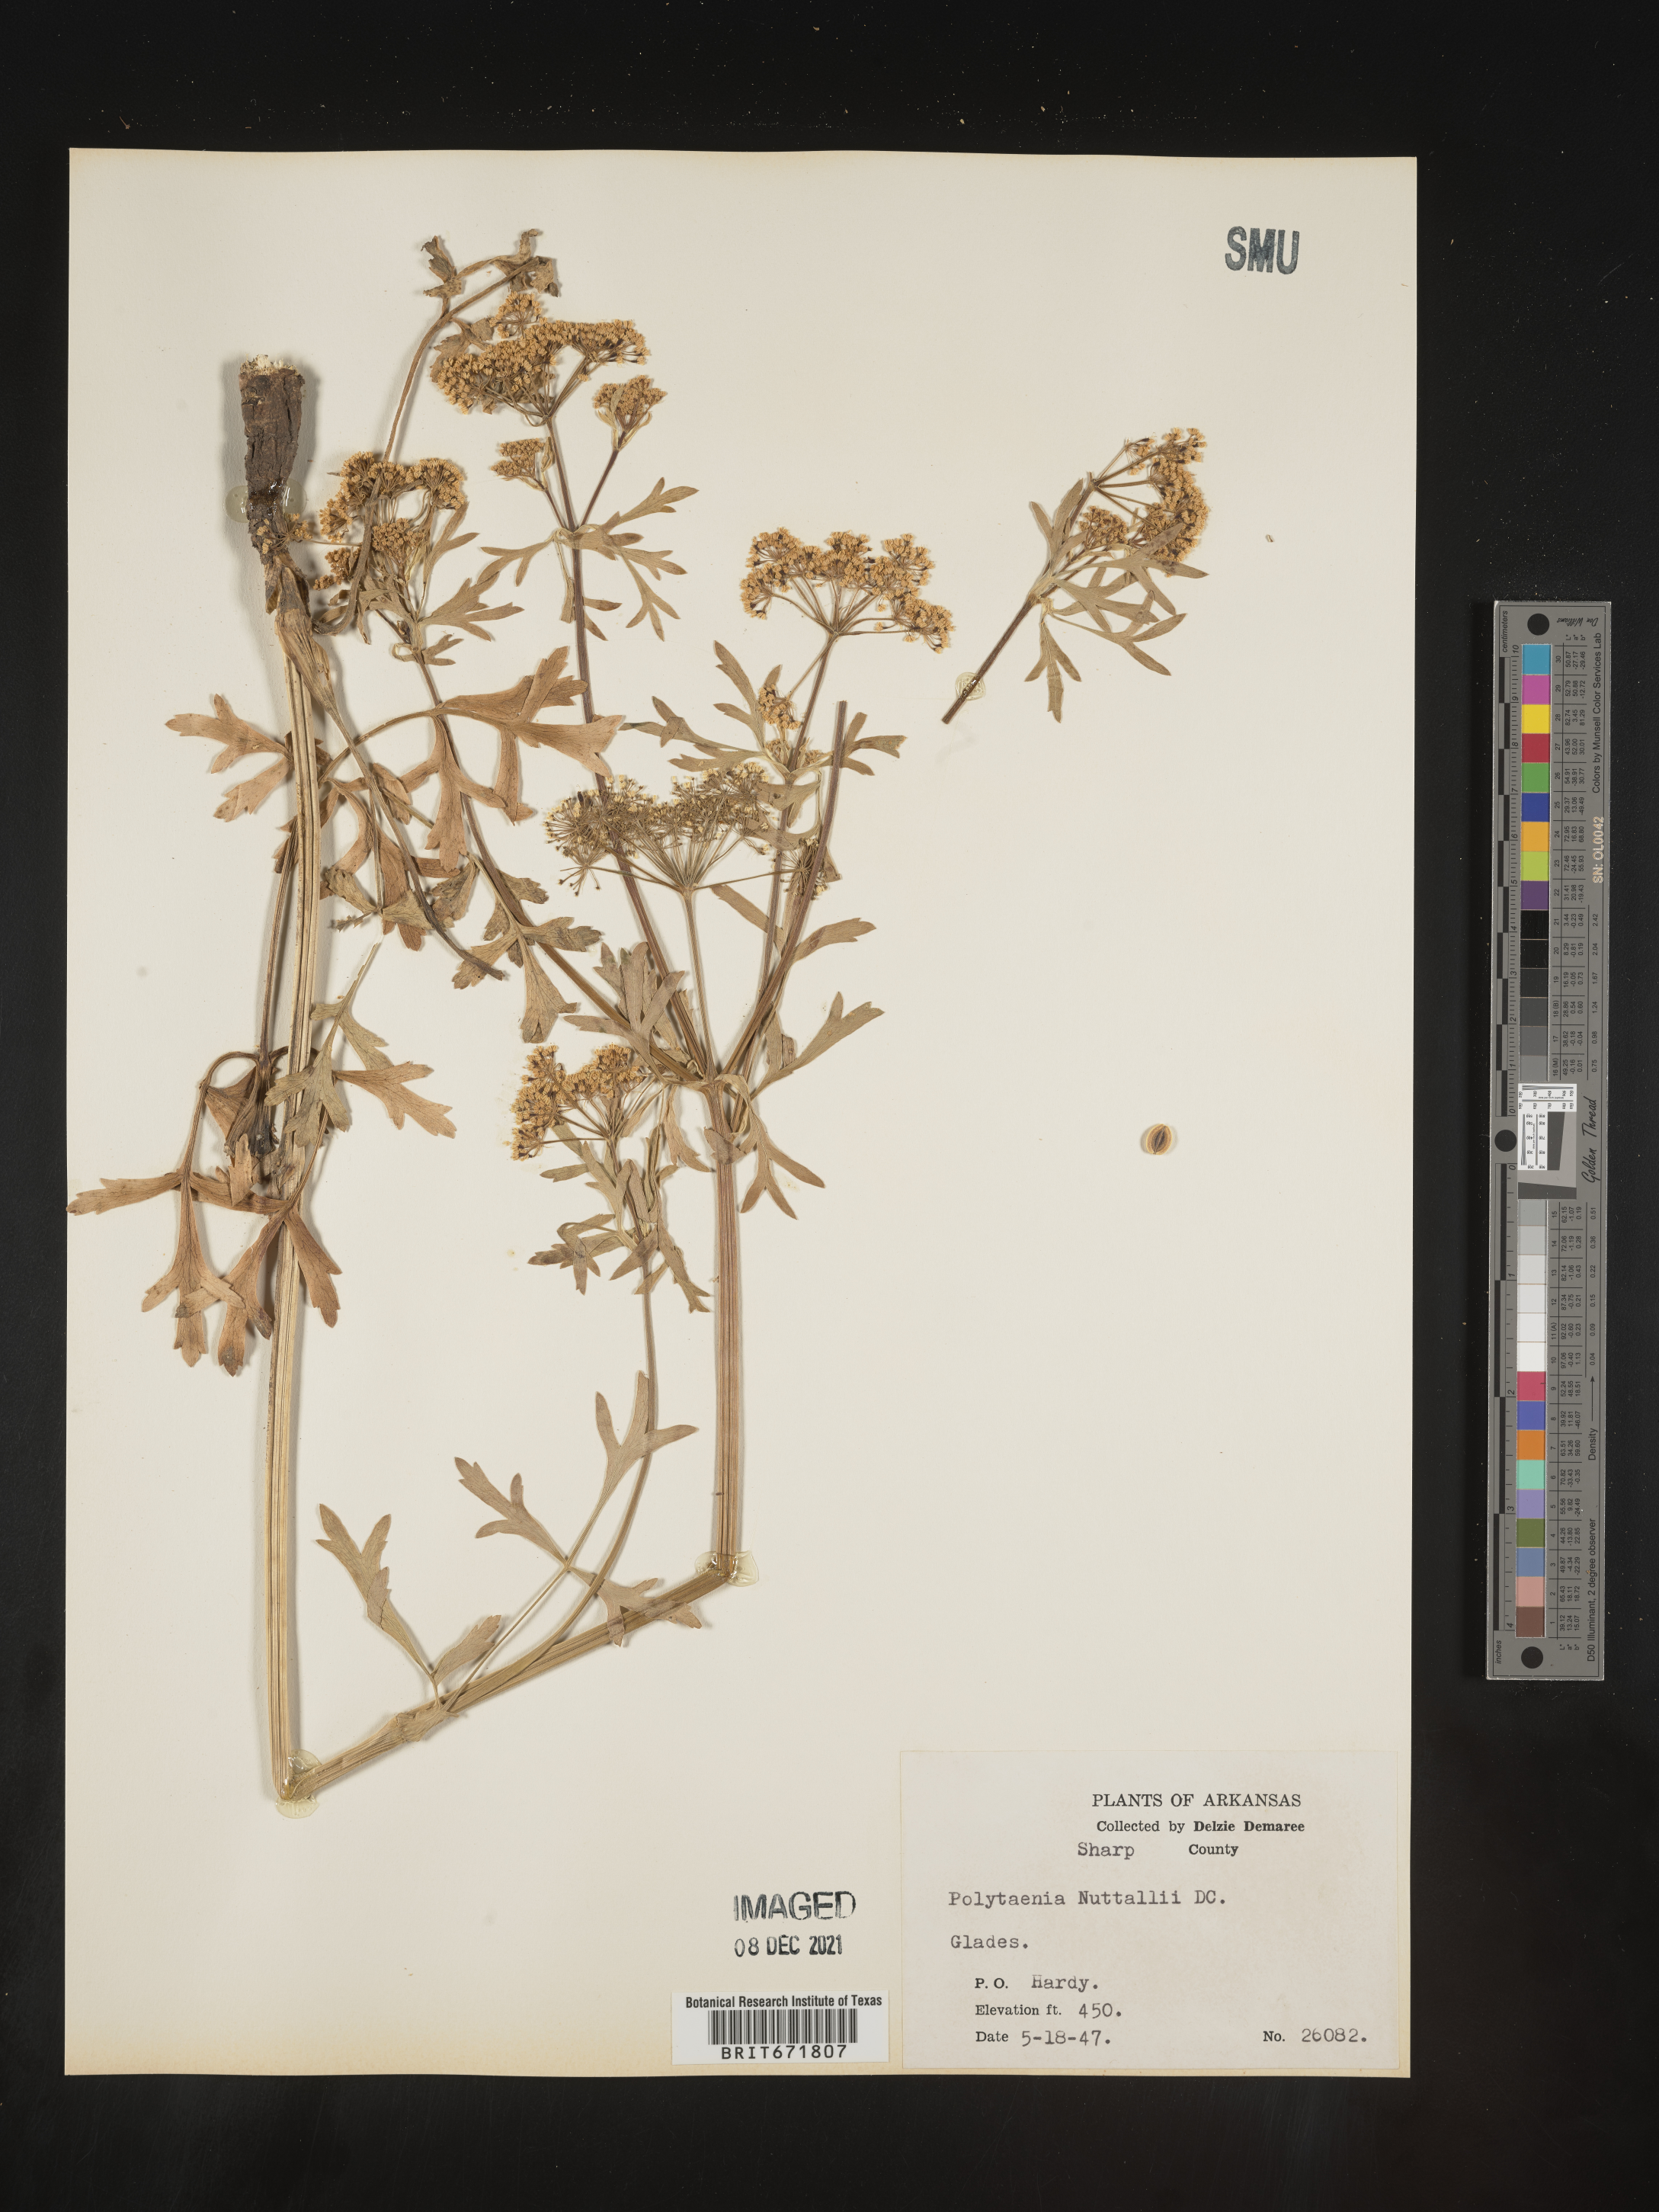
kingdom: Plantae
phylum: Tracheophyta
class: Magnoliopsida
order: Apiales
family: Apiaceae
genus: Polytaenia
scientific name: Polytaenia nuttallii
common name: Prairie-parsley
